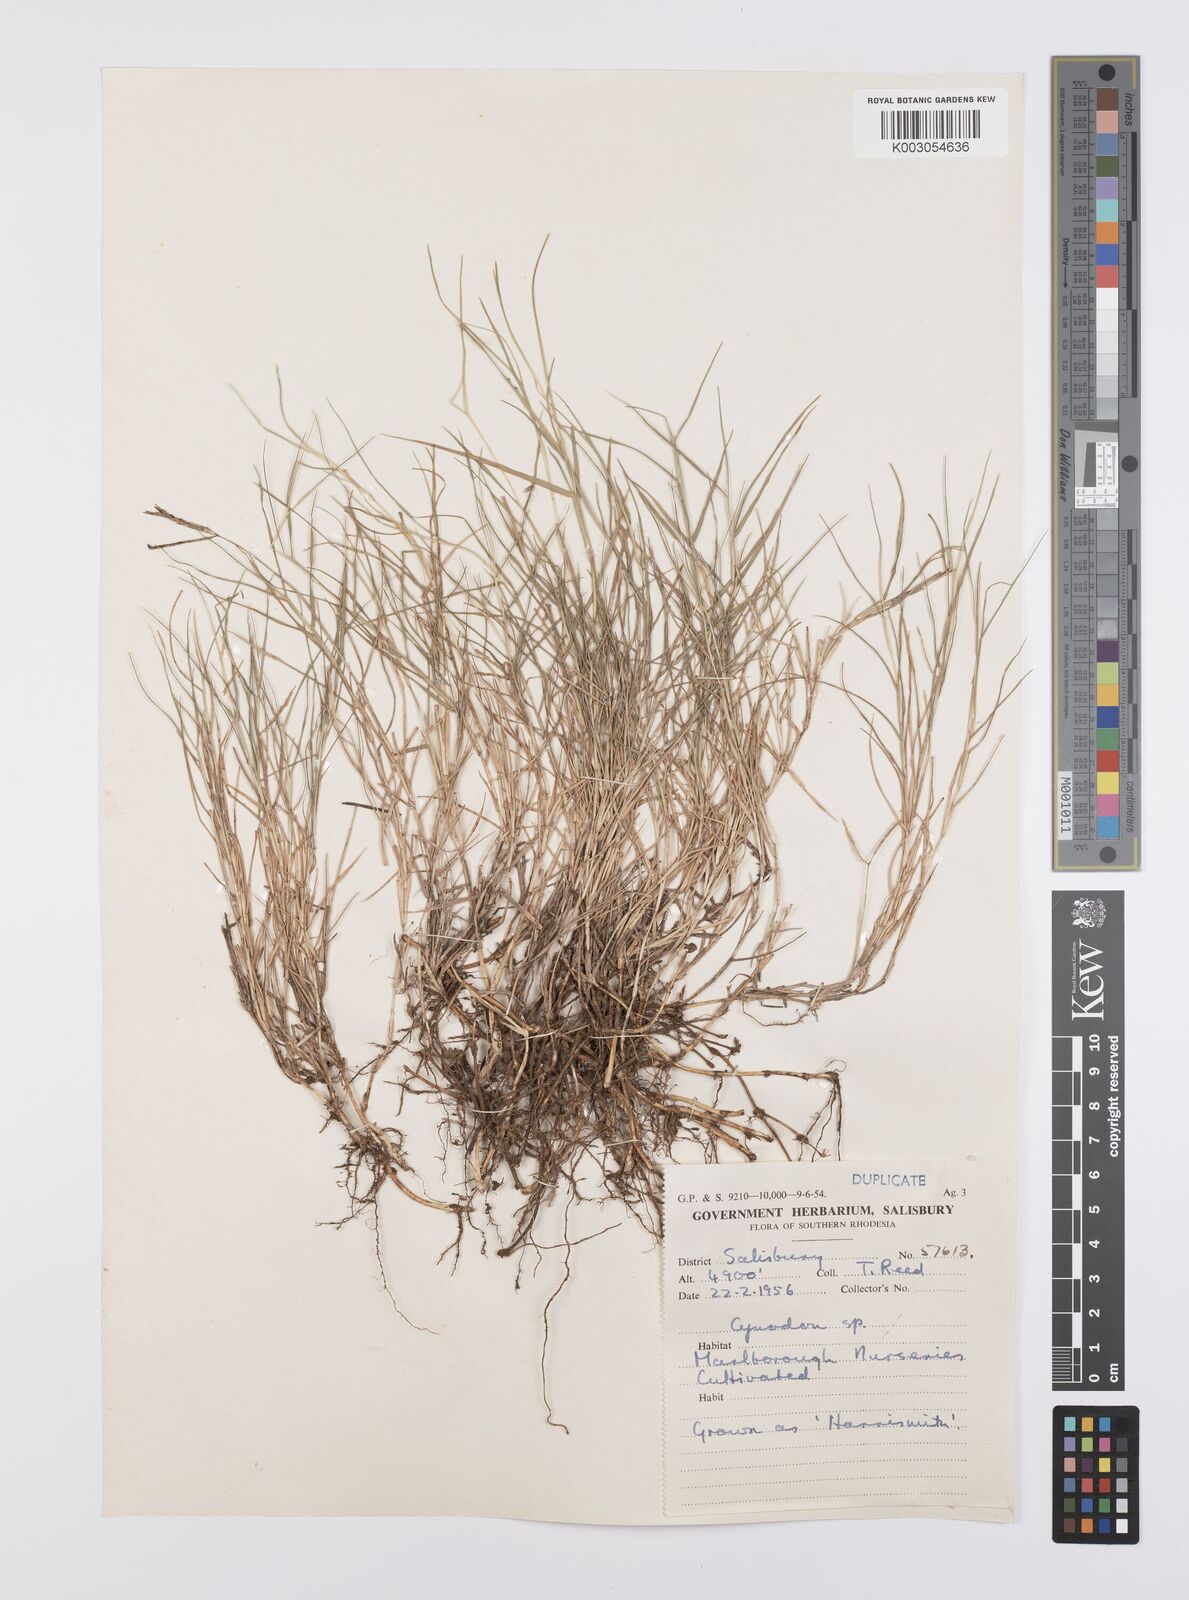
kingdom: Plantae
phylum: Tracheophyta
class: Liliopsida
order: Poales
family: Poaceae
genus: Cynodon
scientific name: Cynodon dactylon
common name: Bermuda grass
